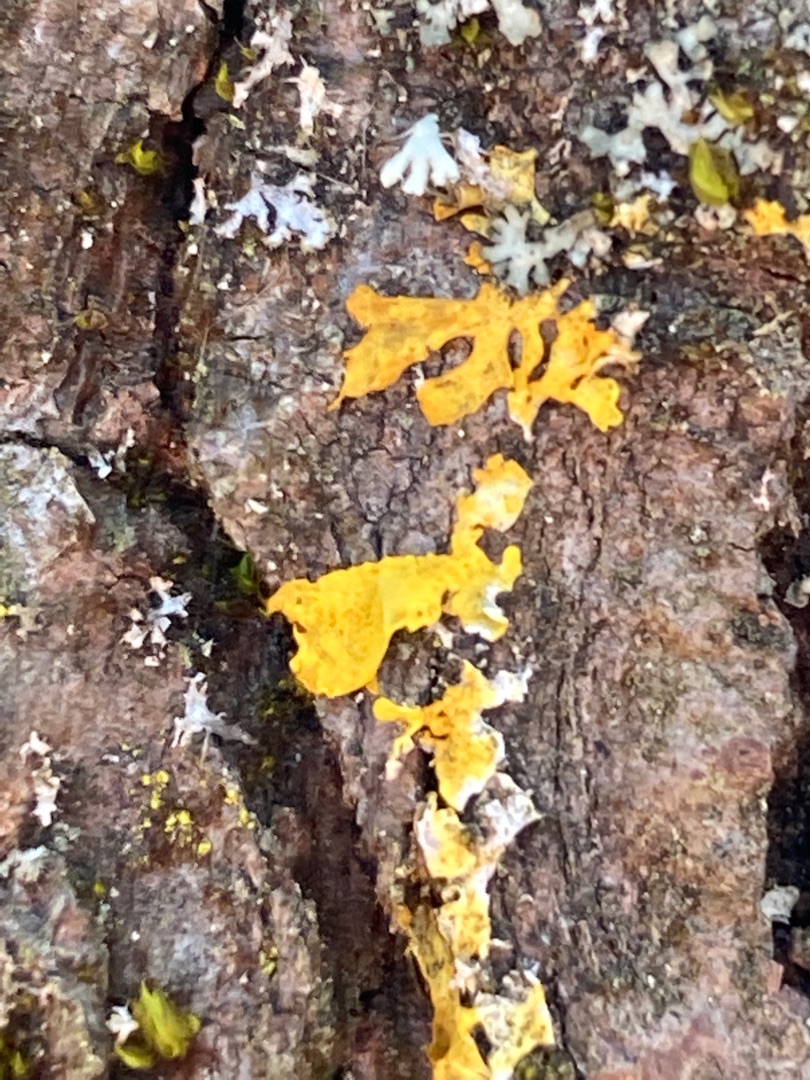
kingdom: Fungi
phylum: Ascomycota
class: Lecanoromycetes
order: Teloschistales
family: Teloschistaceae
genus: Xanthoria
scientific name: Xanthoria parietina
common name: Almindelig væggelav
